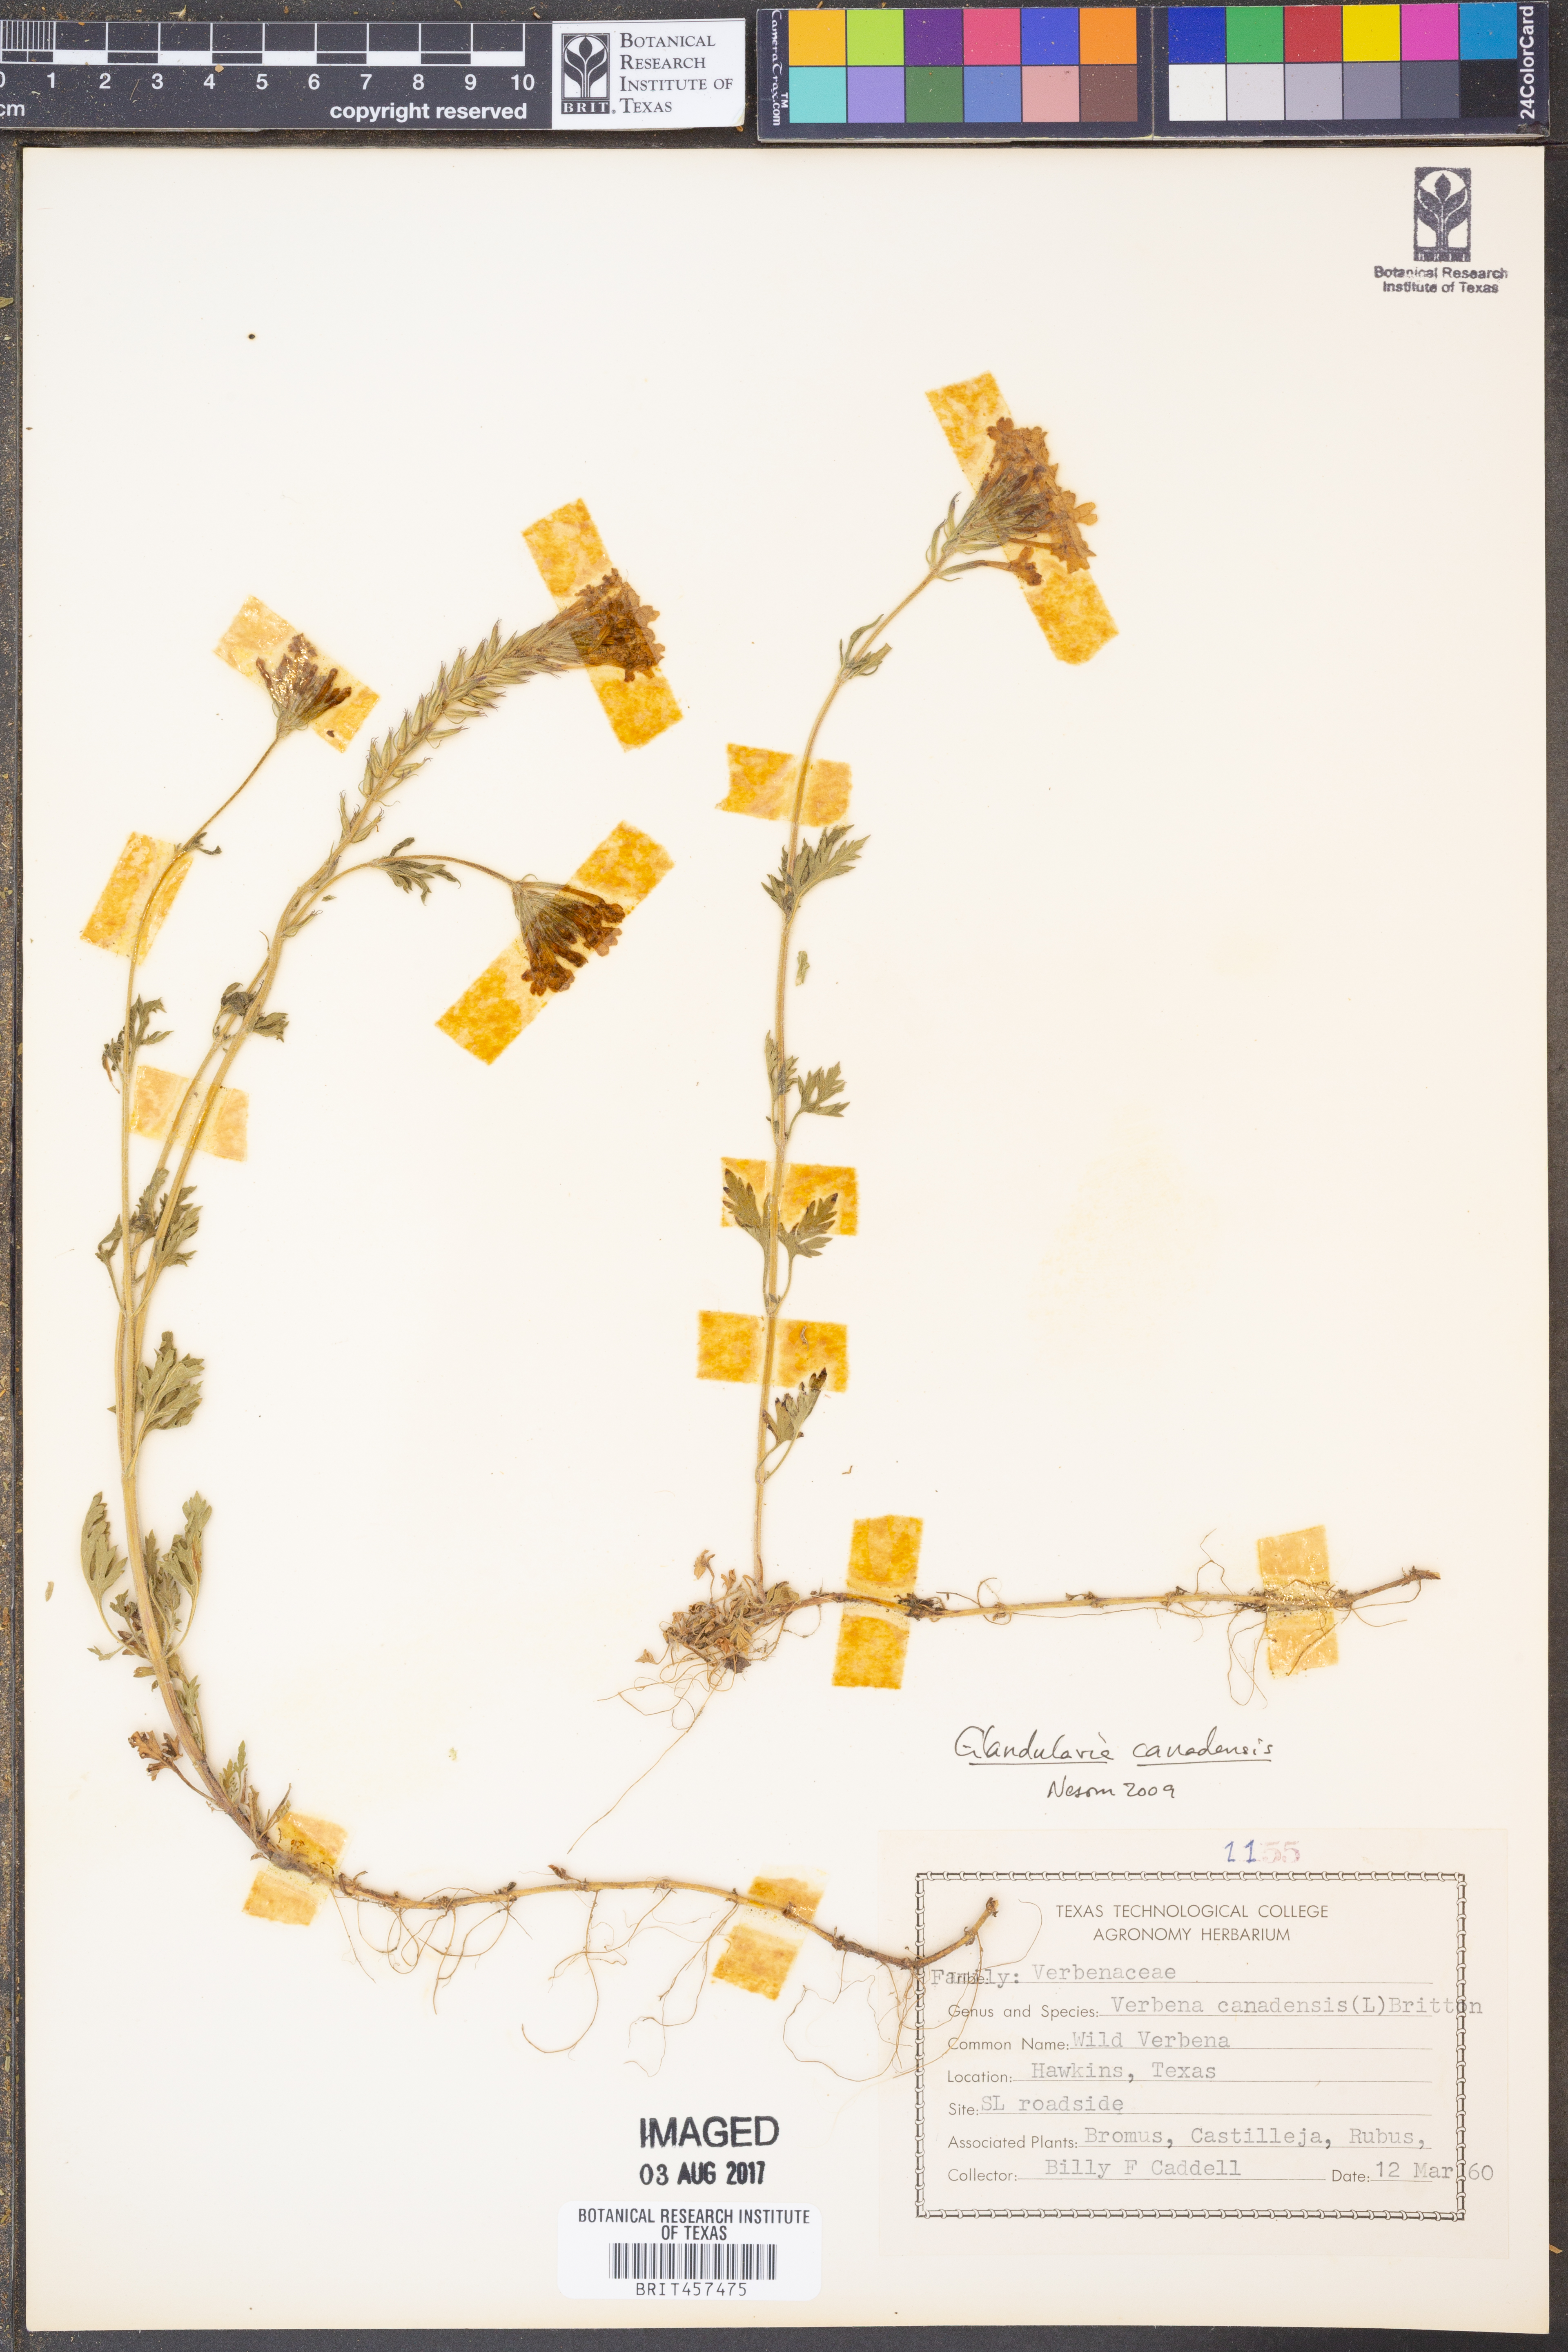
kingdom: Plantae
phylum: Tracheophyta
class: Magnoliopsida
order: Lamiales
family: Verbenaceae
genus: Verbena
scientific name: Verbena canadensis
